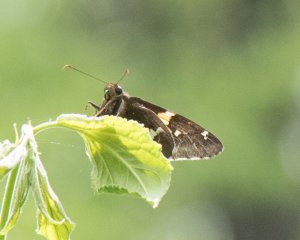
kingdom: Animalia
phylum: Arthropoda
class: Insecta
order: Lepidoptera
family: Hesperiidae
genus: Epargyreus
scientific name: Epargyreus clarus
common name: Silver-spotted Skipper
